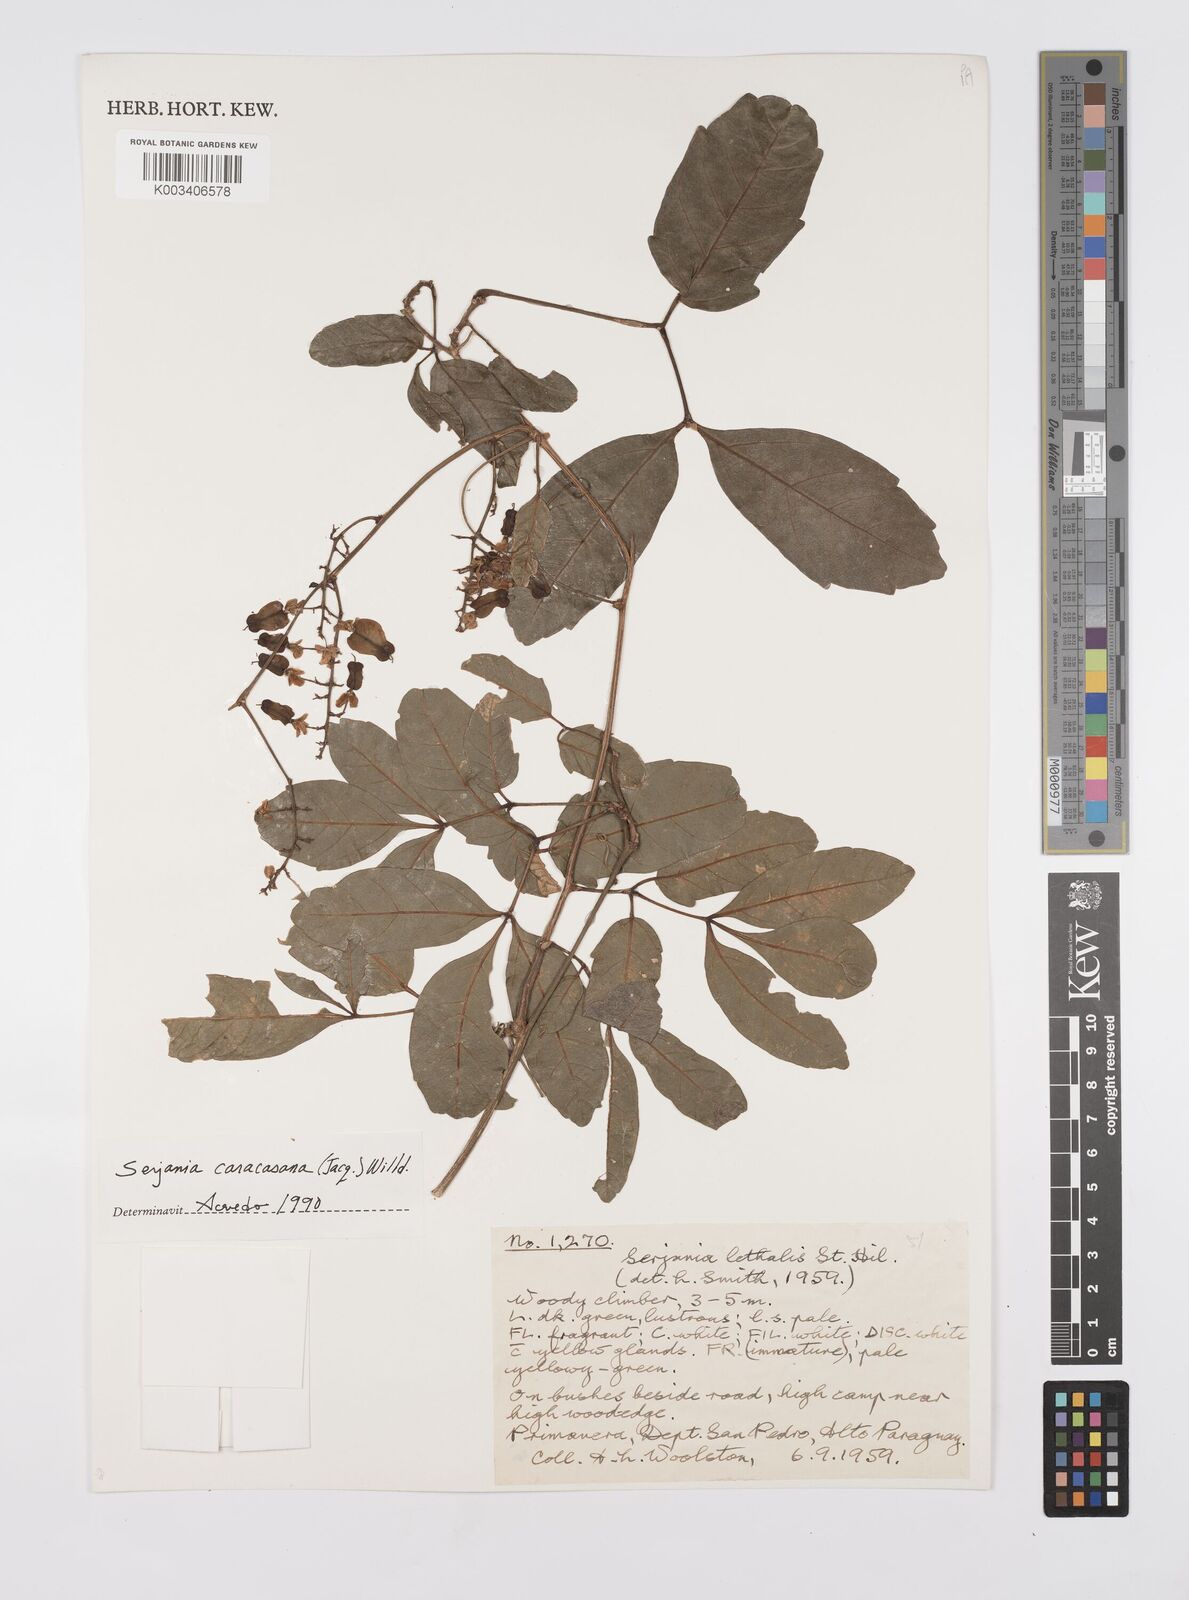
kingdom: Plantae
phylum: Tracheophyta
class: Magnoliopsida
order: Sapindales
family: Sapindaceae
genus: Serjania
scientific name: Serjania caracasana
